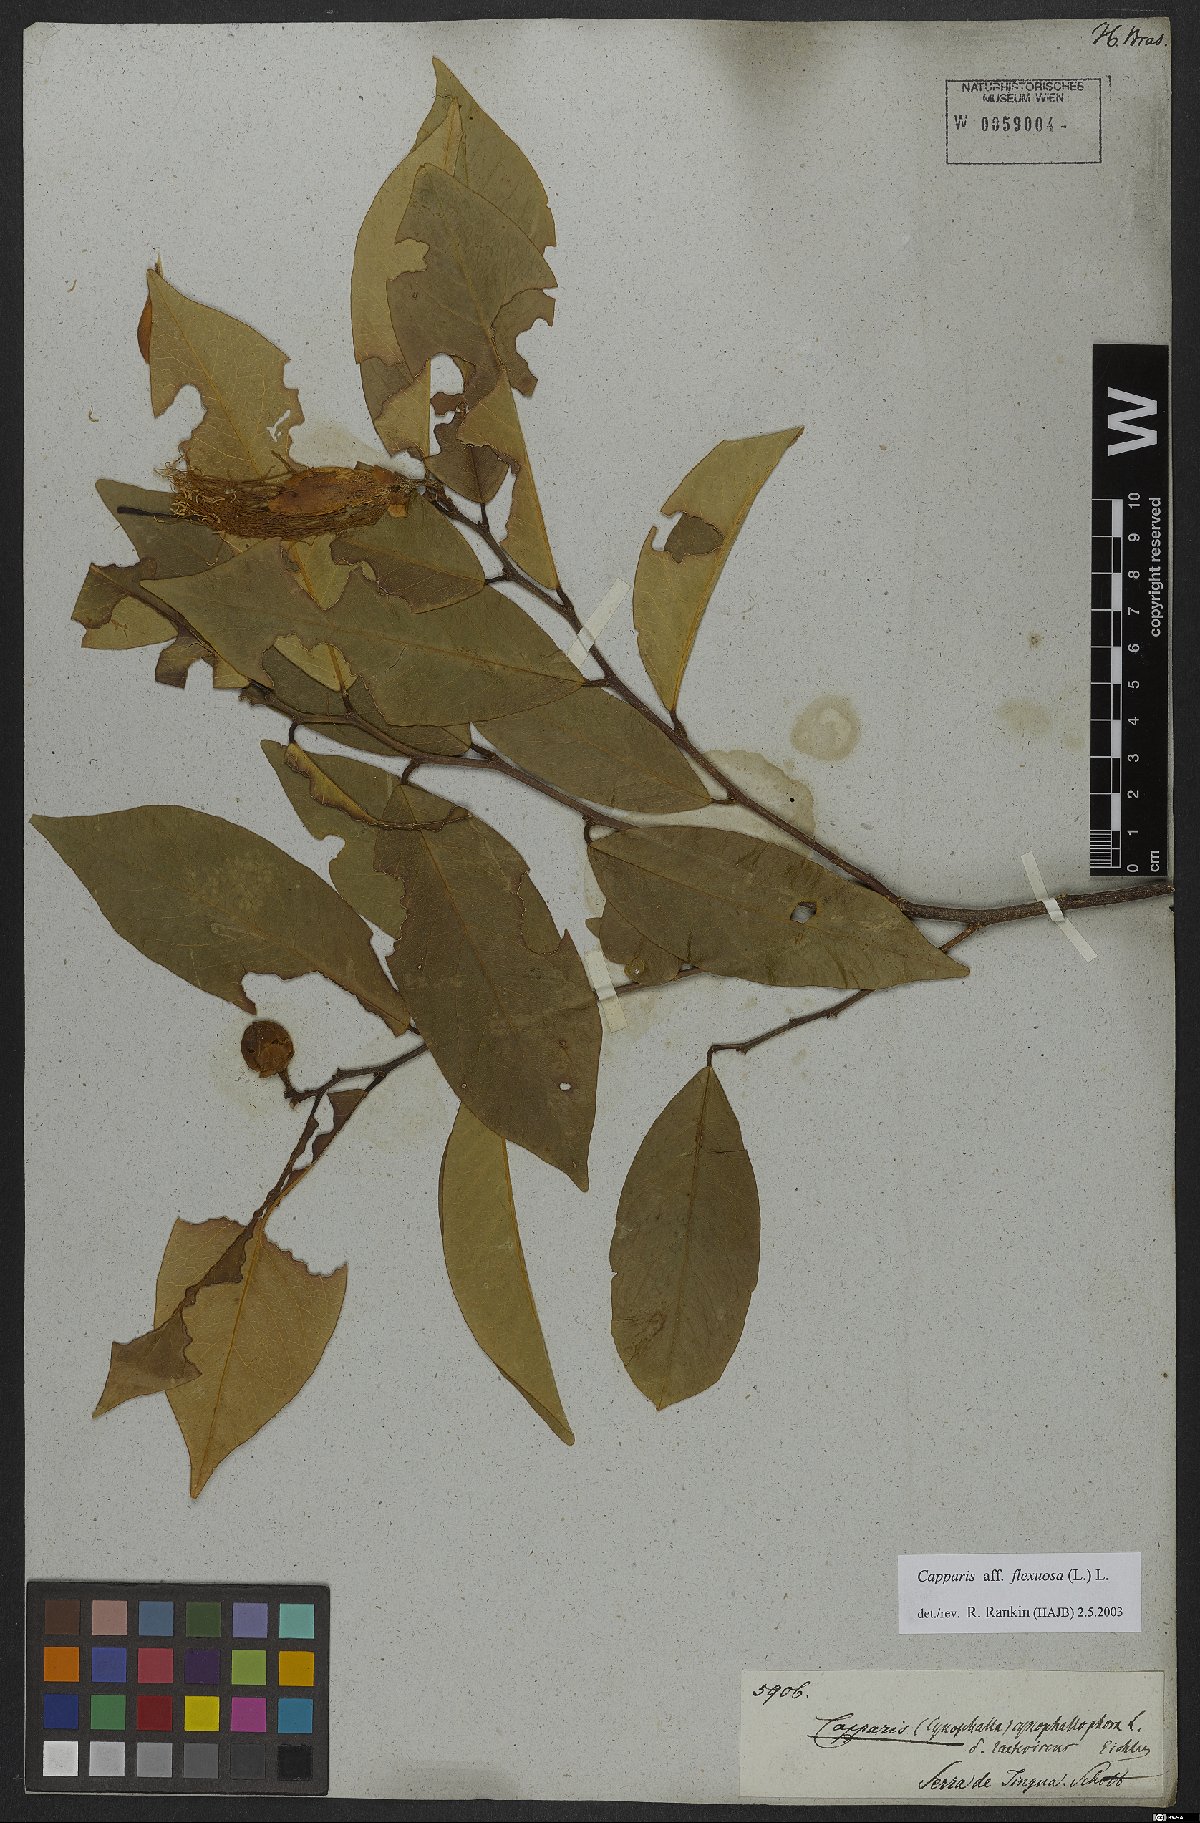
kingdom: Plantae
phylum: Tracheophyta
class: Magnoliopsida
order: Brassicales
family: Capparaceae
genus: Cynophalla
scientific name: Cynophalla flexuosa
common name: Capertree
